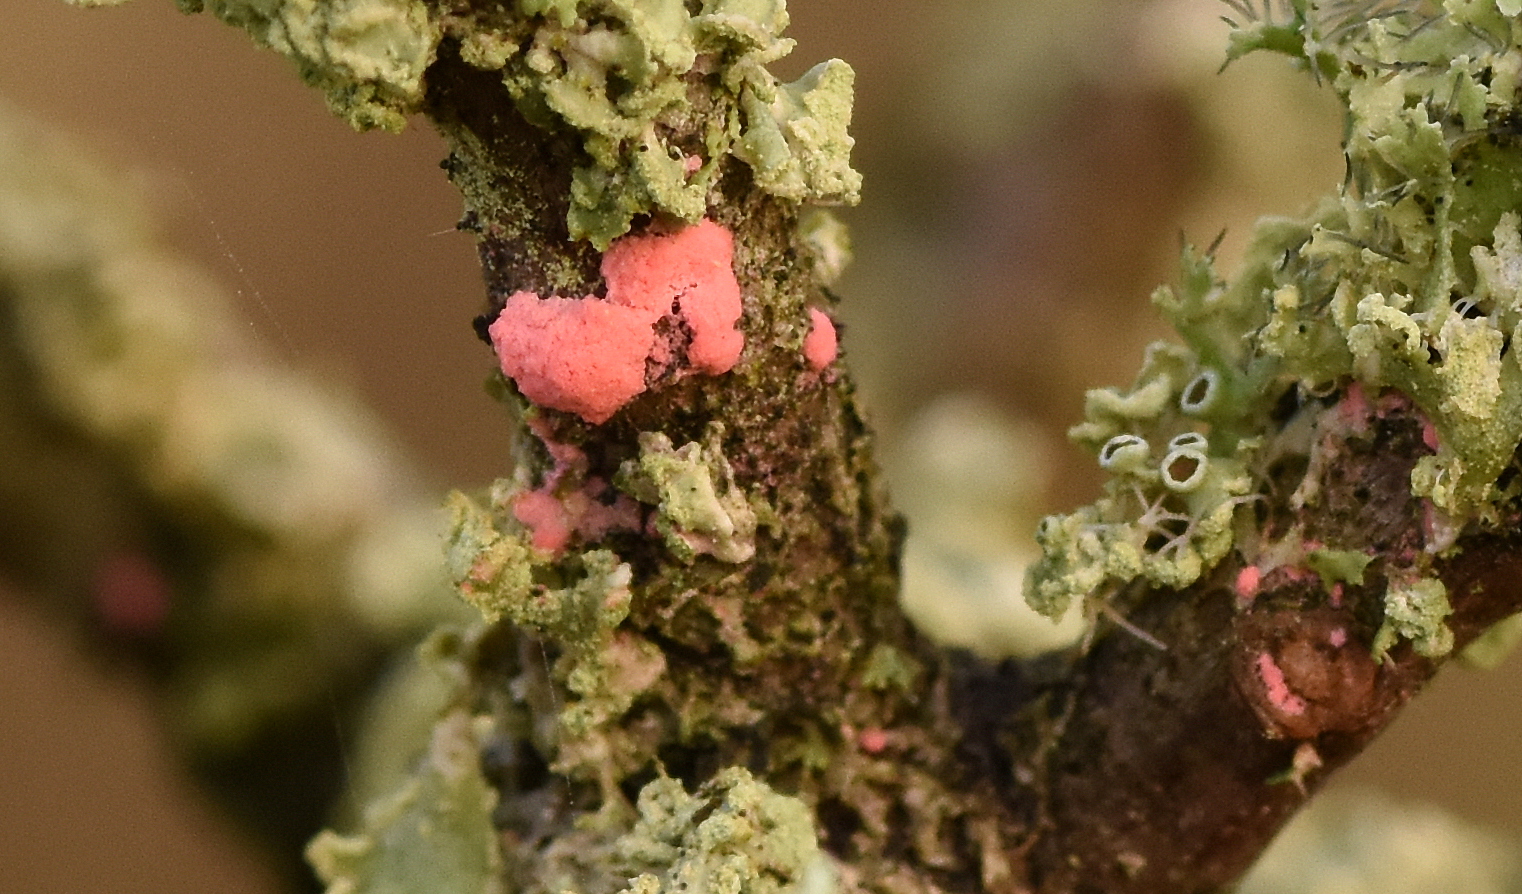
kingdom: Fungi
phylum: Ascomycota
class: Sordariomycetes
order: Hypocreales
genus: Illosporiopsis
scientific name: Illosporiopsis christiansenii
